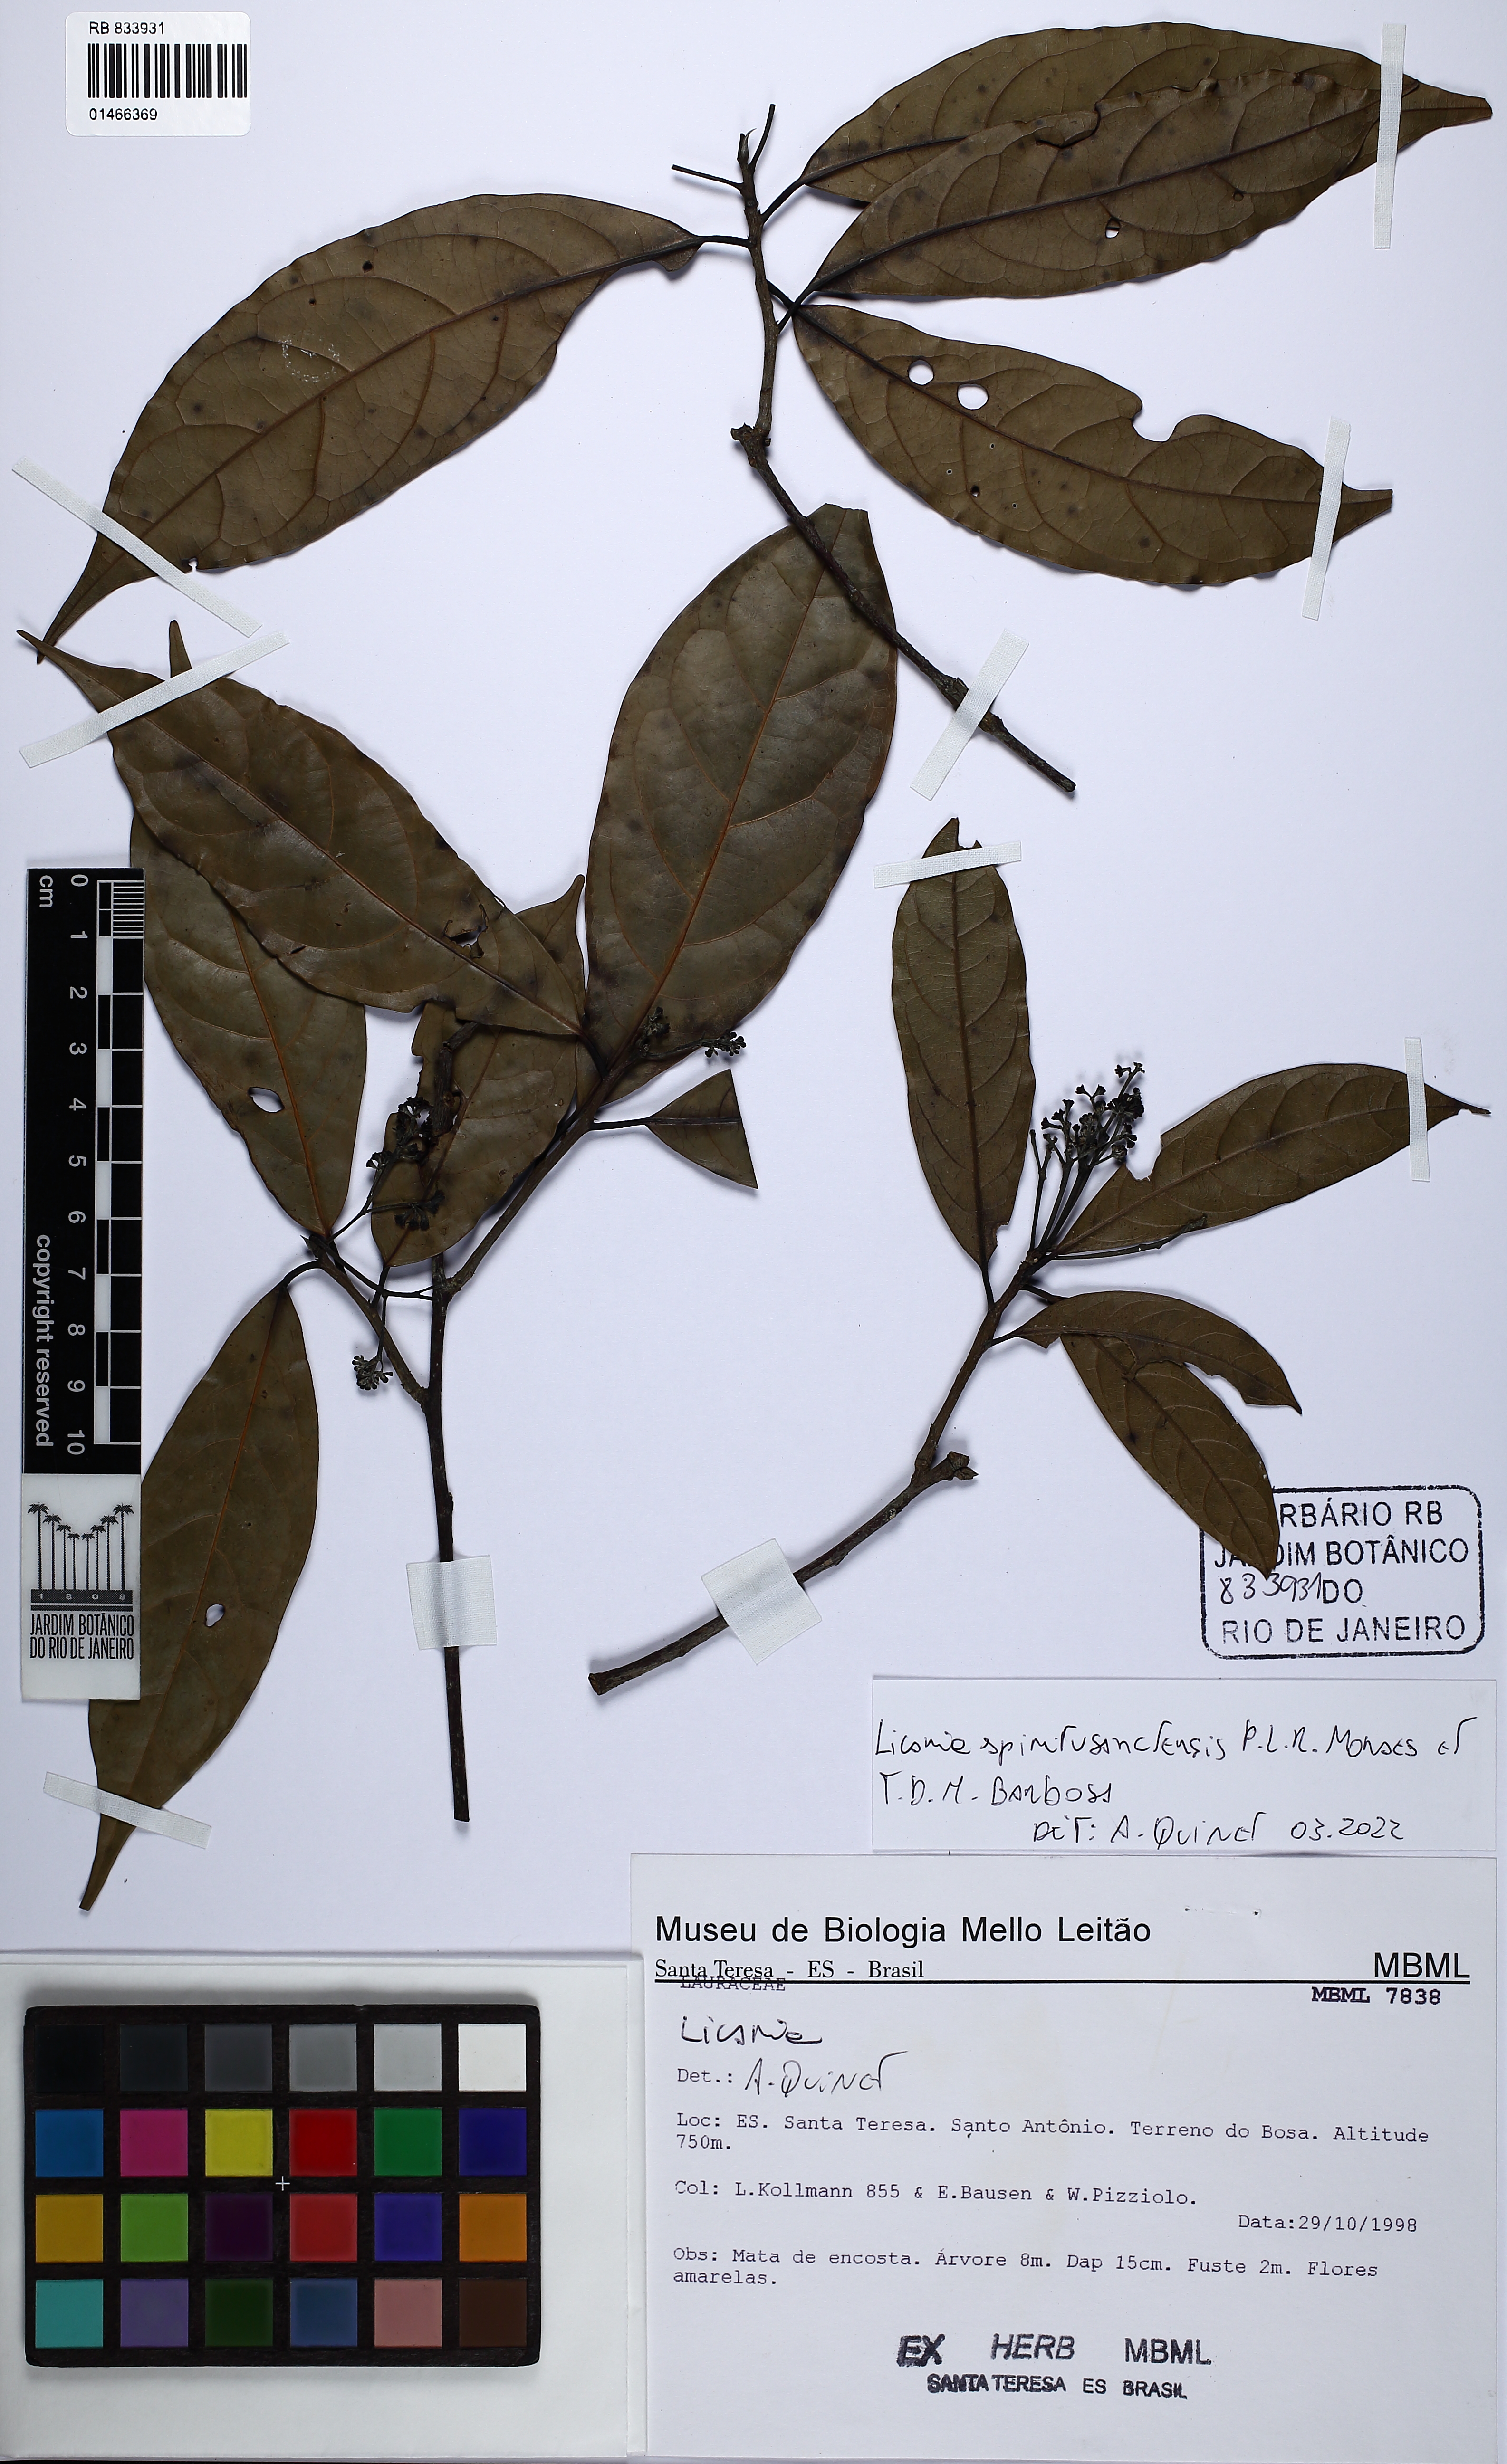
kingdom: Plantae
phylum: Tracheophyta
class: Magnoliopsida
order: Laurales
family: Lauraceae
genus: Licaria
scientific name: Licaria spiritusanctensis
